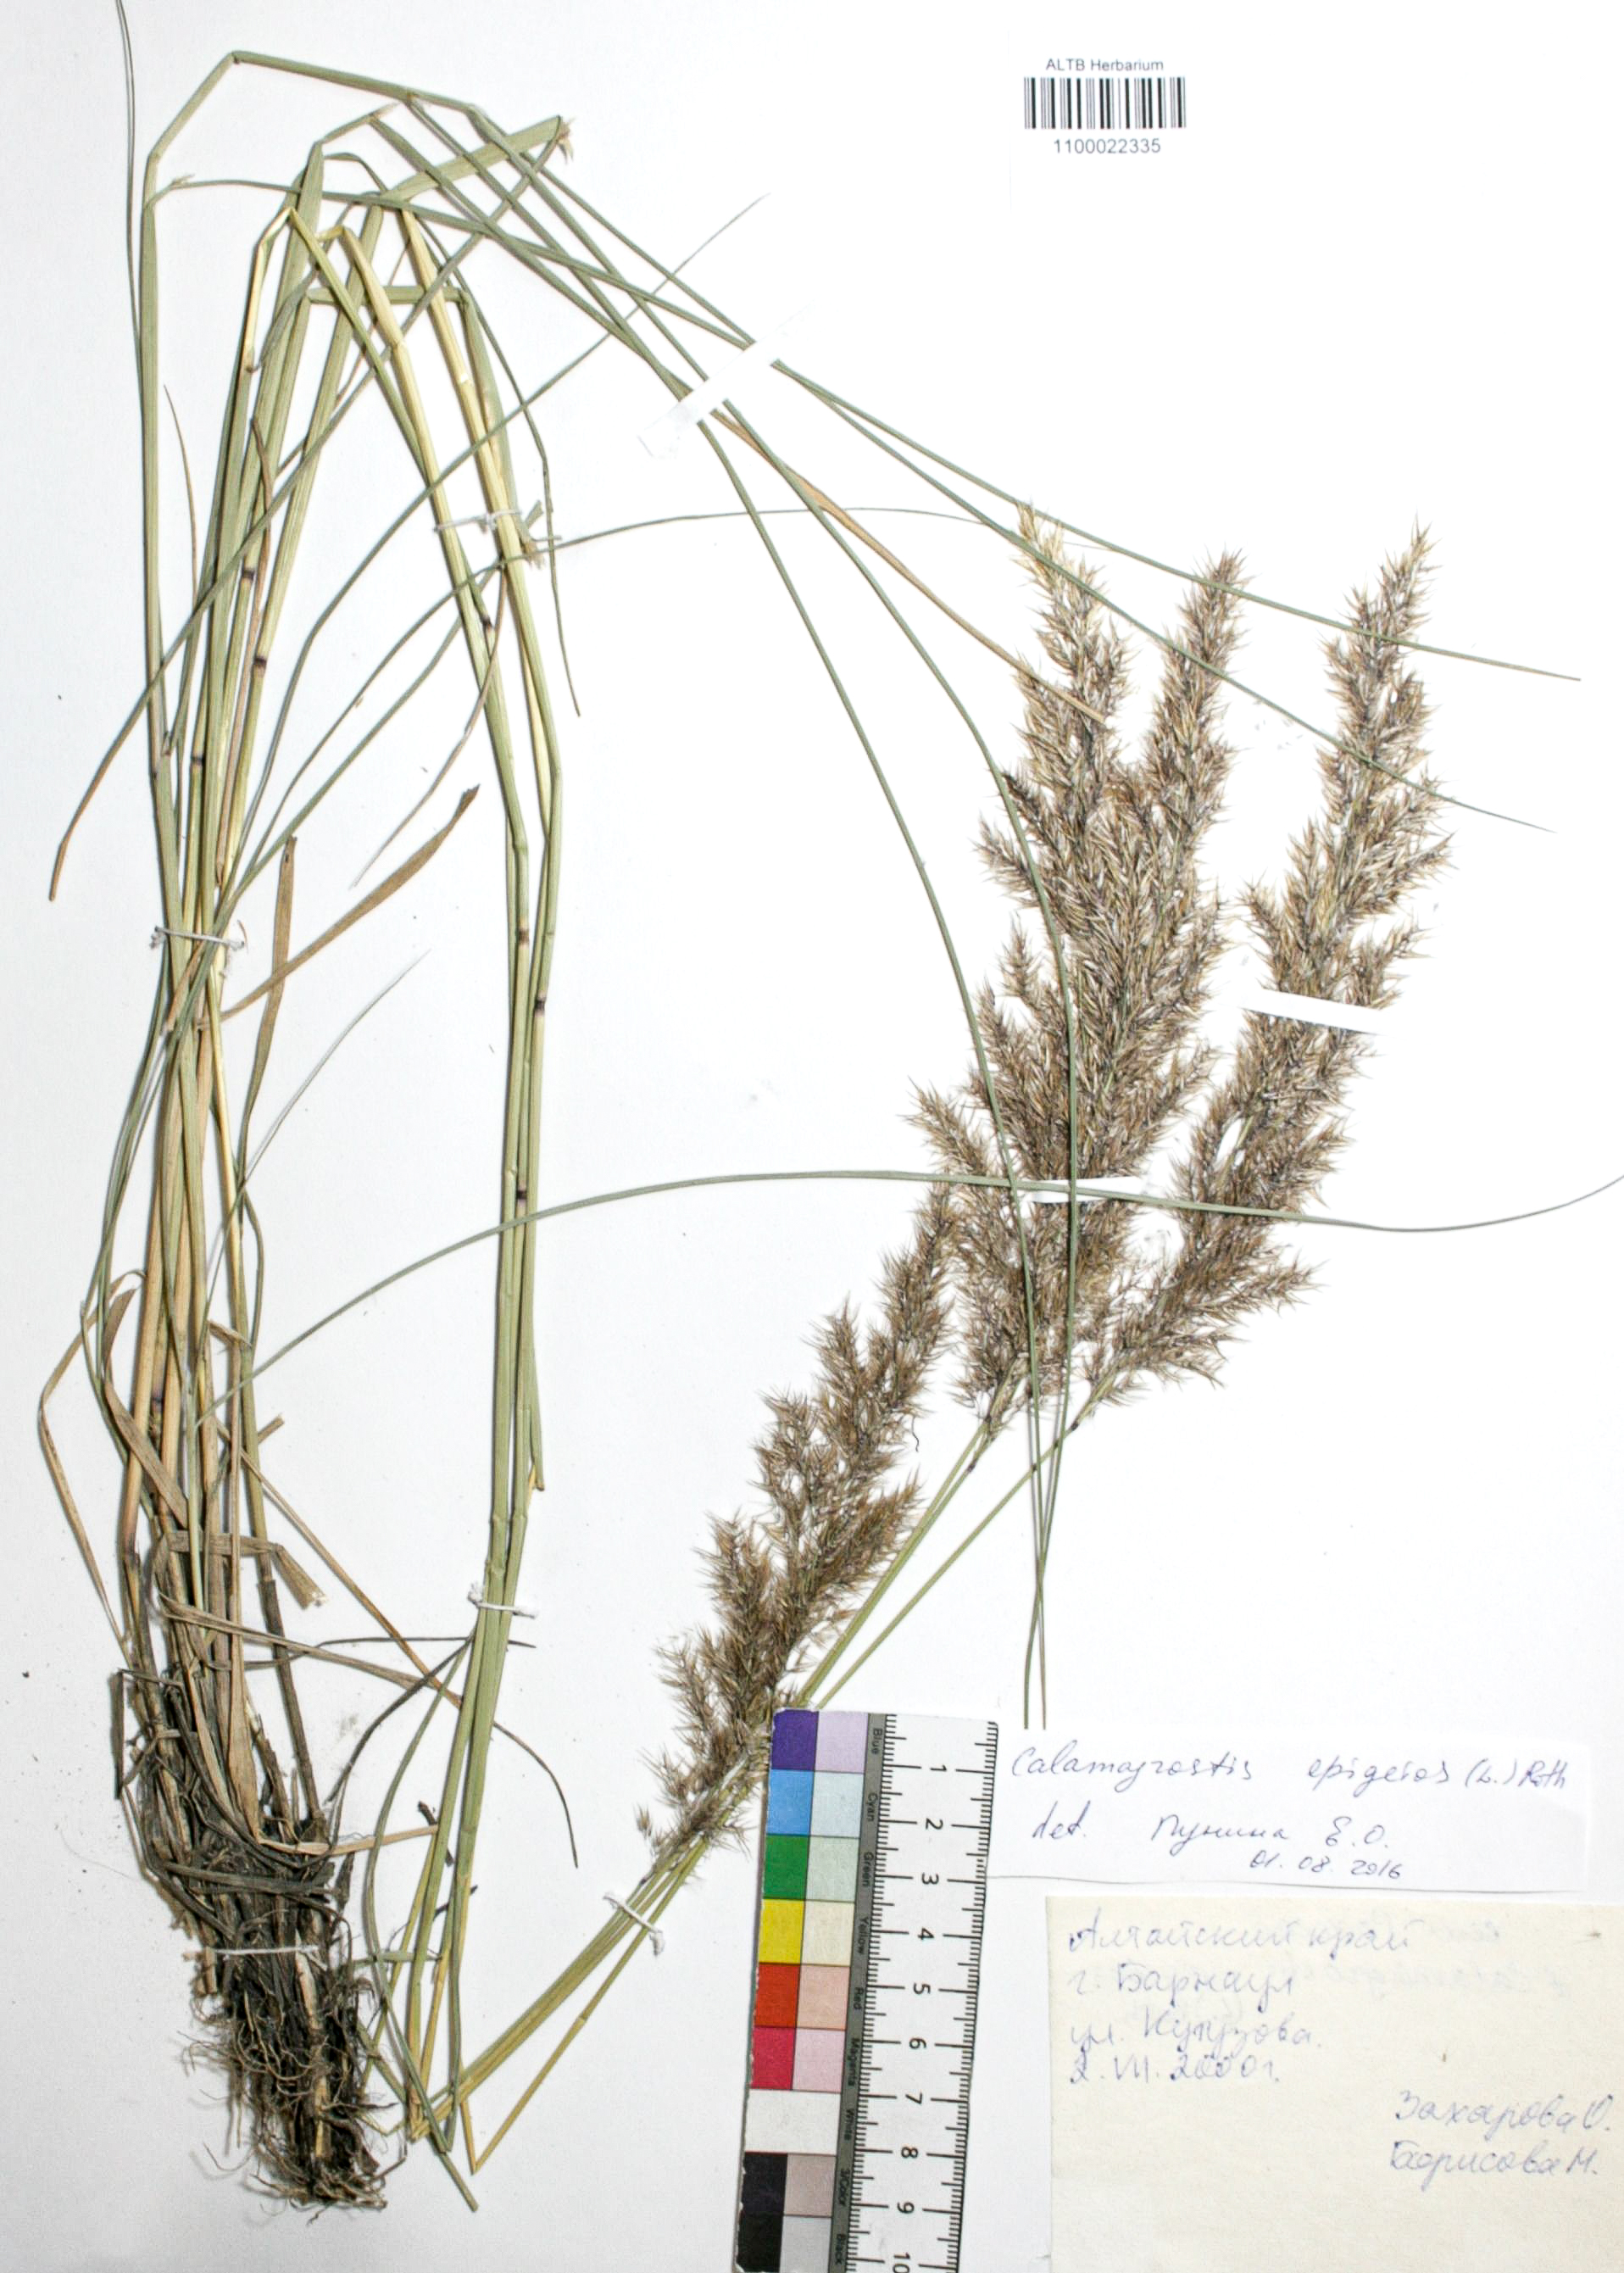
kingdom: Plantae
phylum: Tracheophyta
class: Liliopsida
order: Poales
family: Poaceae
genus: Calamagrostis
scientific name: Calamagrostis pseudophragmites
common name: Coastal small-reed
